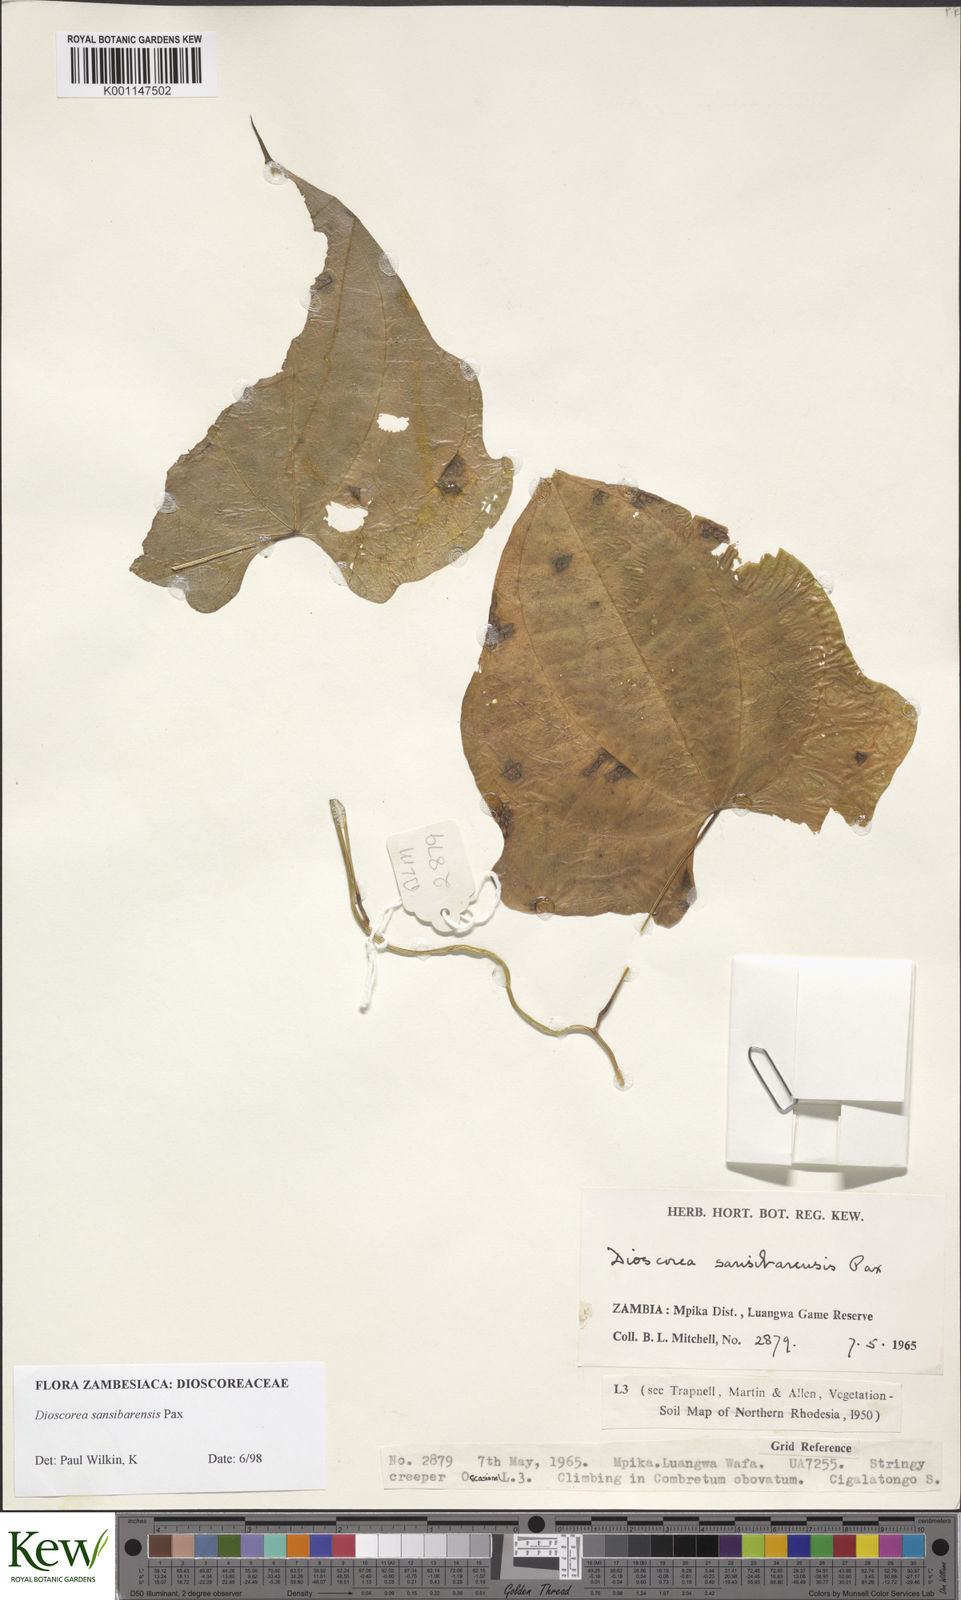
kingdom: Plantae
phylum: Tracheophyta
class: Liliopsida
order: Dioscoreales
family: Dioscoreaceae
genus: Dioscorea
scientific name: Dioscorea sansibarensis
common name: Zanzibar yam
